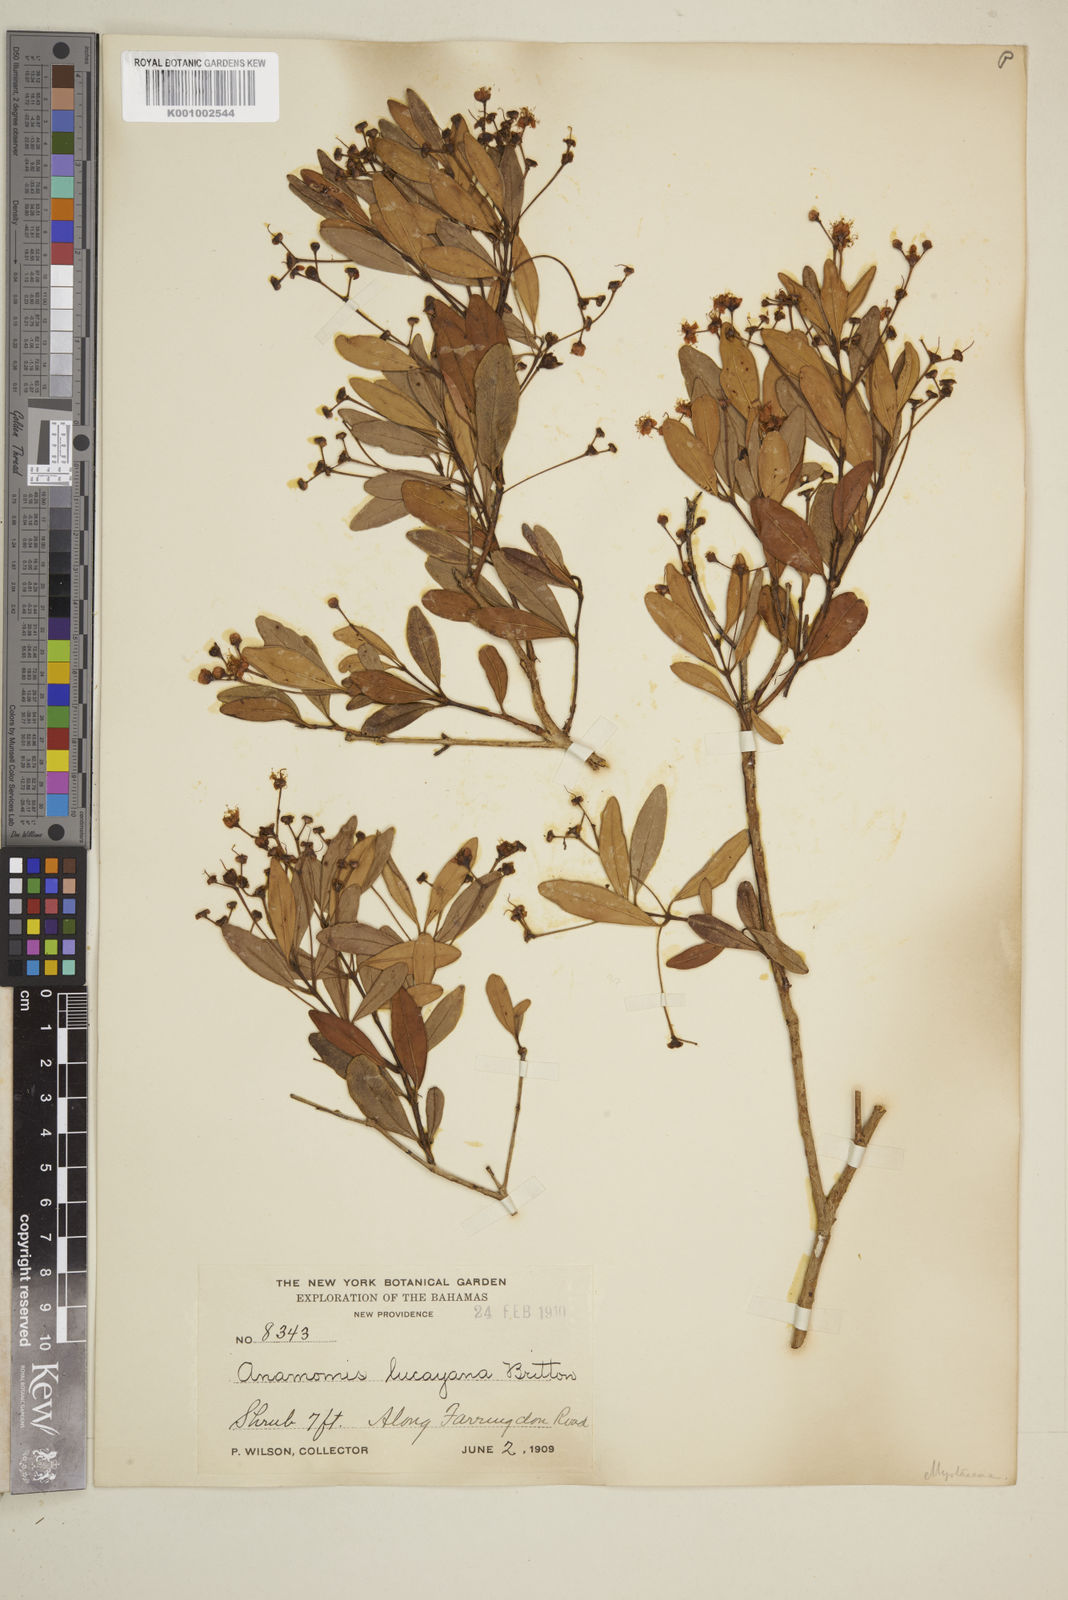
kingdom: Plantae
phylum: Tracheophyta
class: Magnoliopsida
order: Myrtales
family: Myrtaceae
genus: Myrcianthes
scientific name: Myrcianthes fragrans
